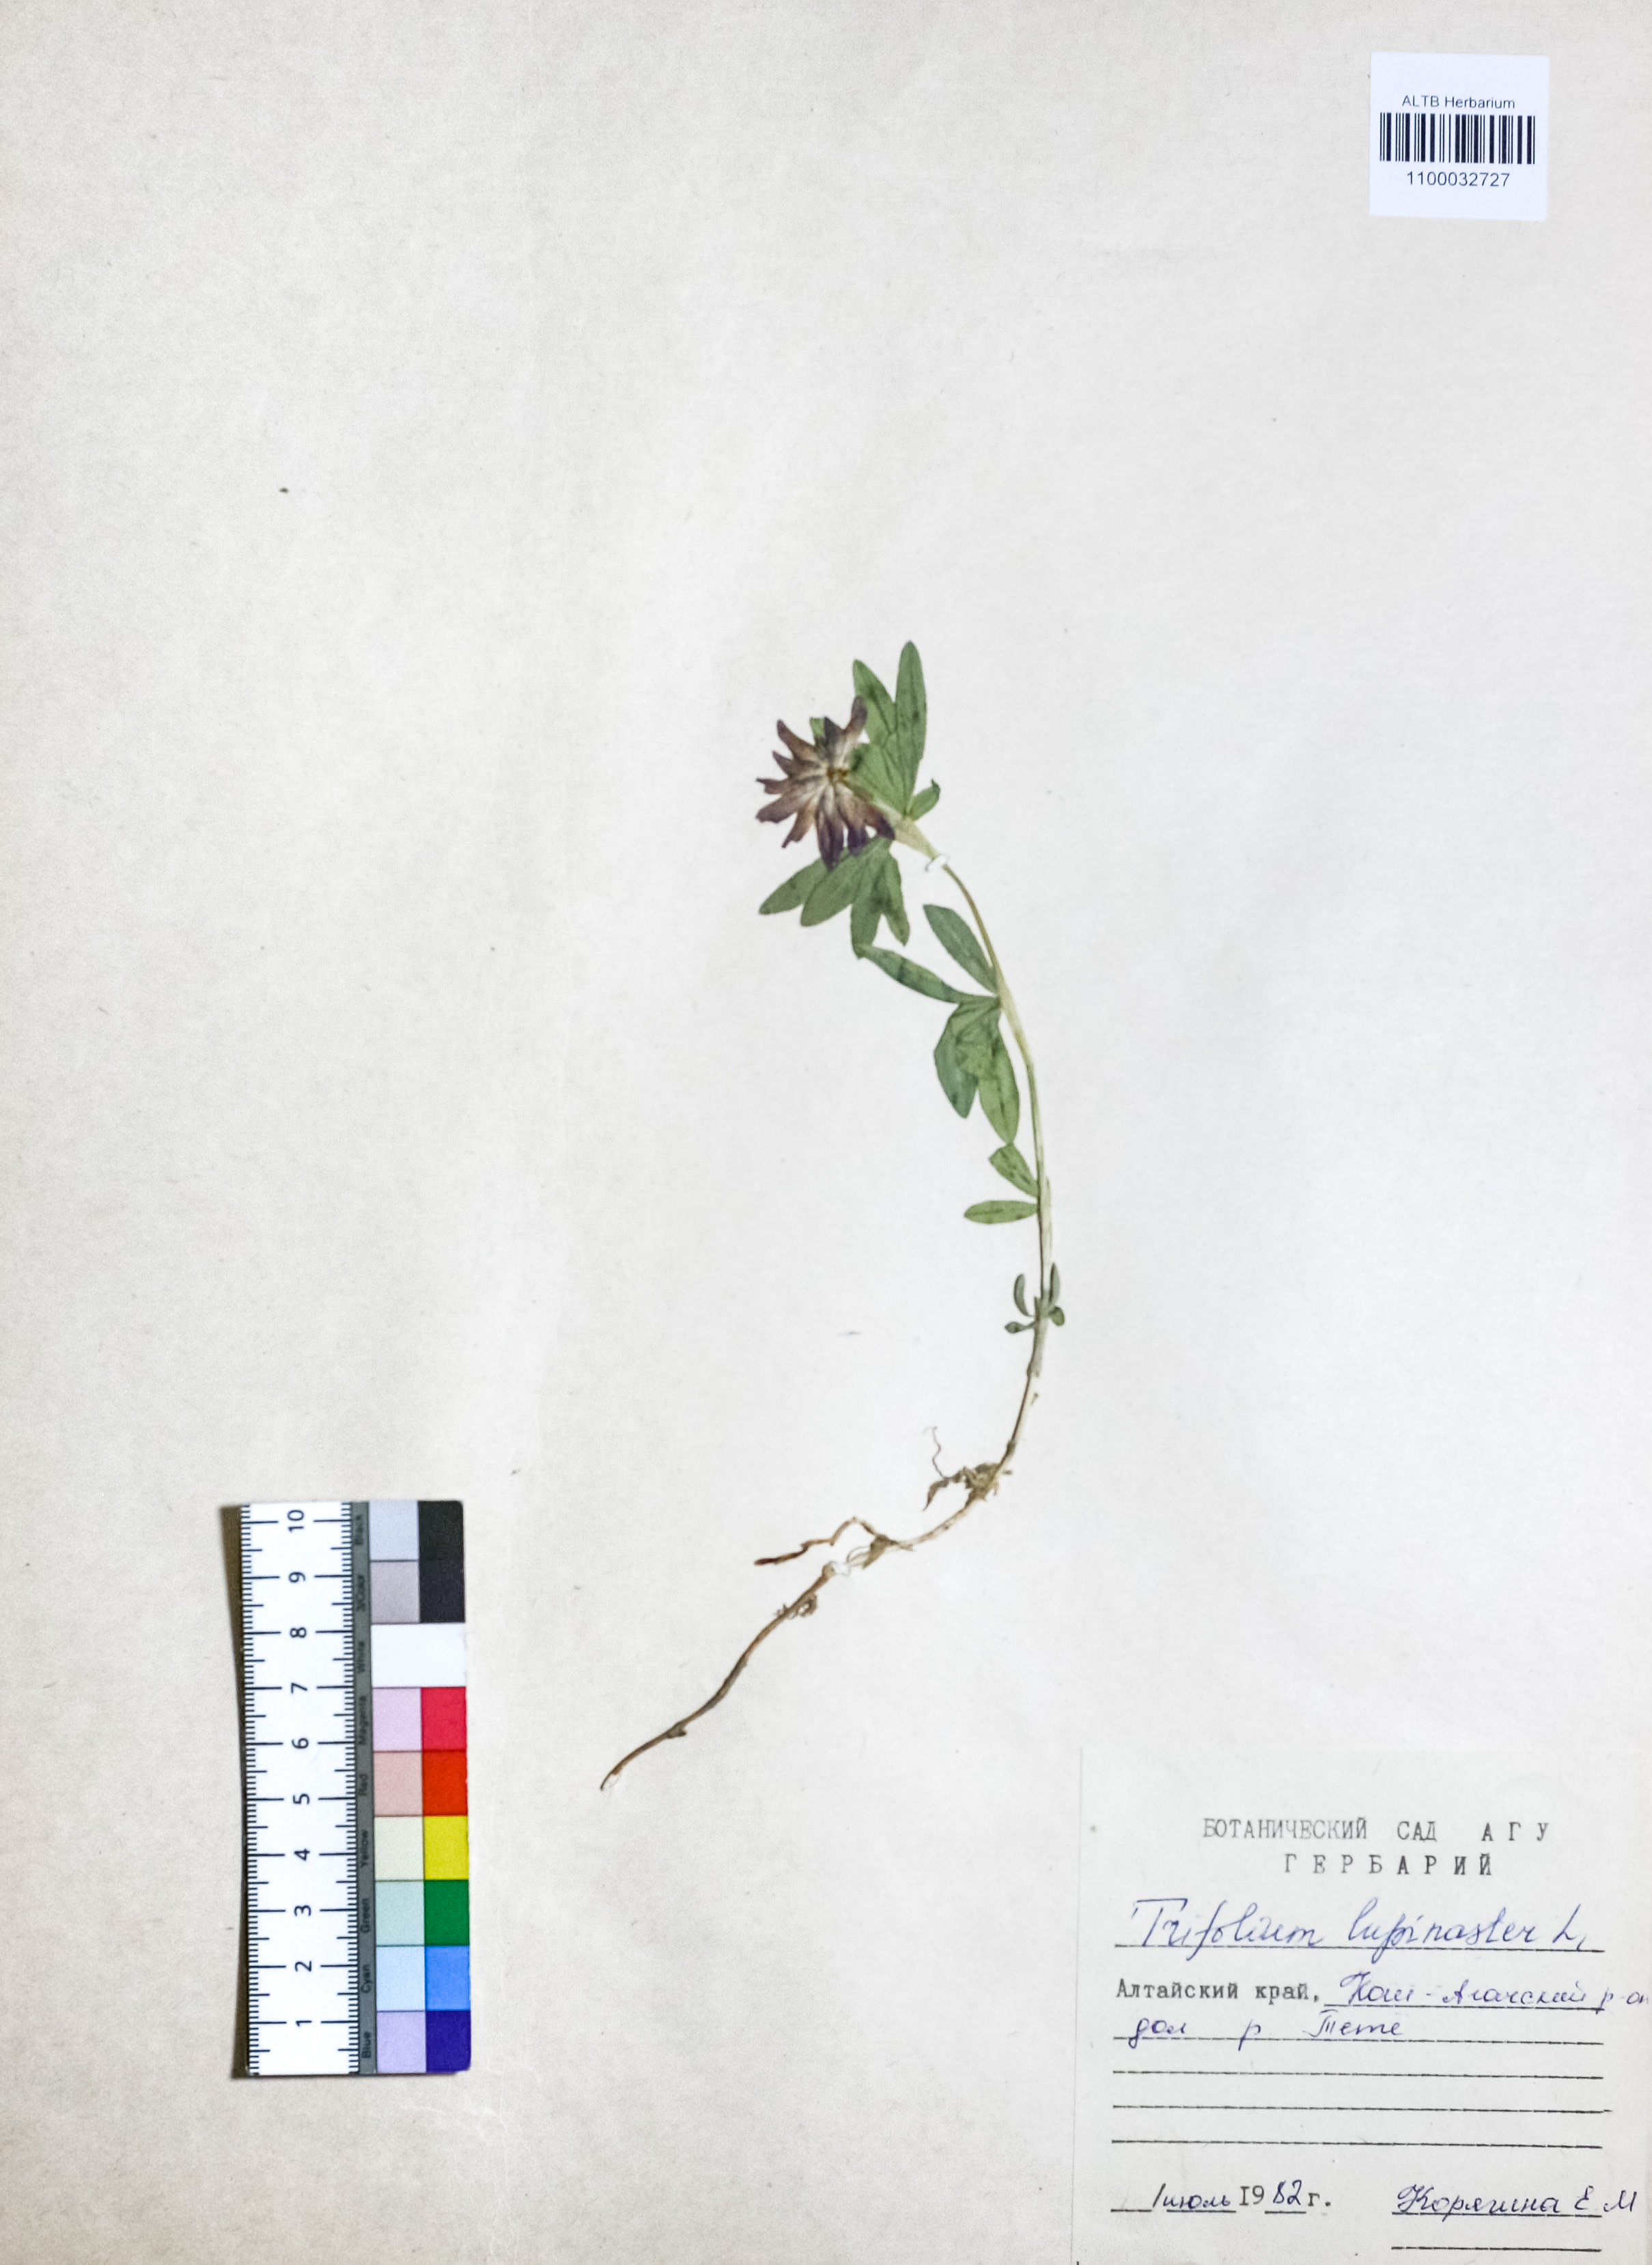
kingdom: Plantae
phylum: Tracheophyta
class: Magnoliopsida
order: Fabales
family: Fabaceae
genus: Trifolium
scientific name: Trifolium lupinaster
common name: Lupine clover
